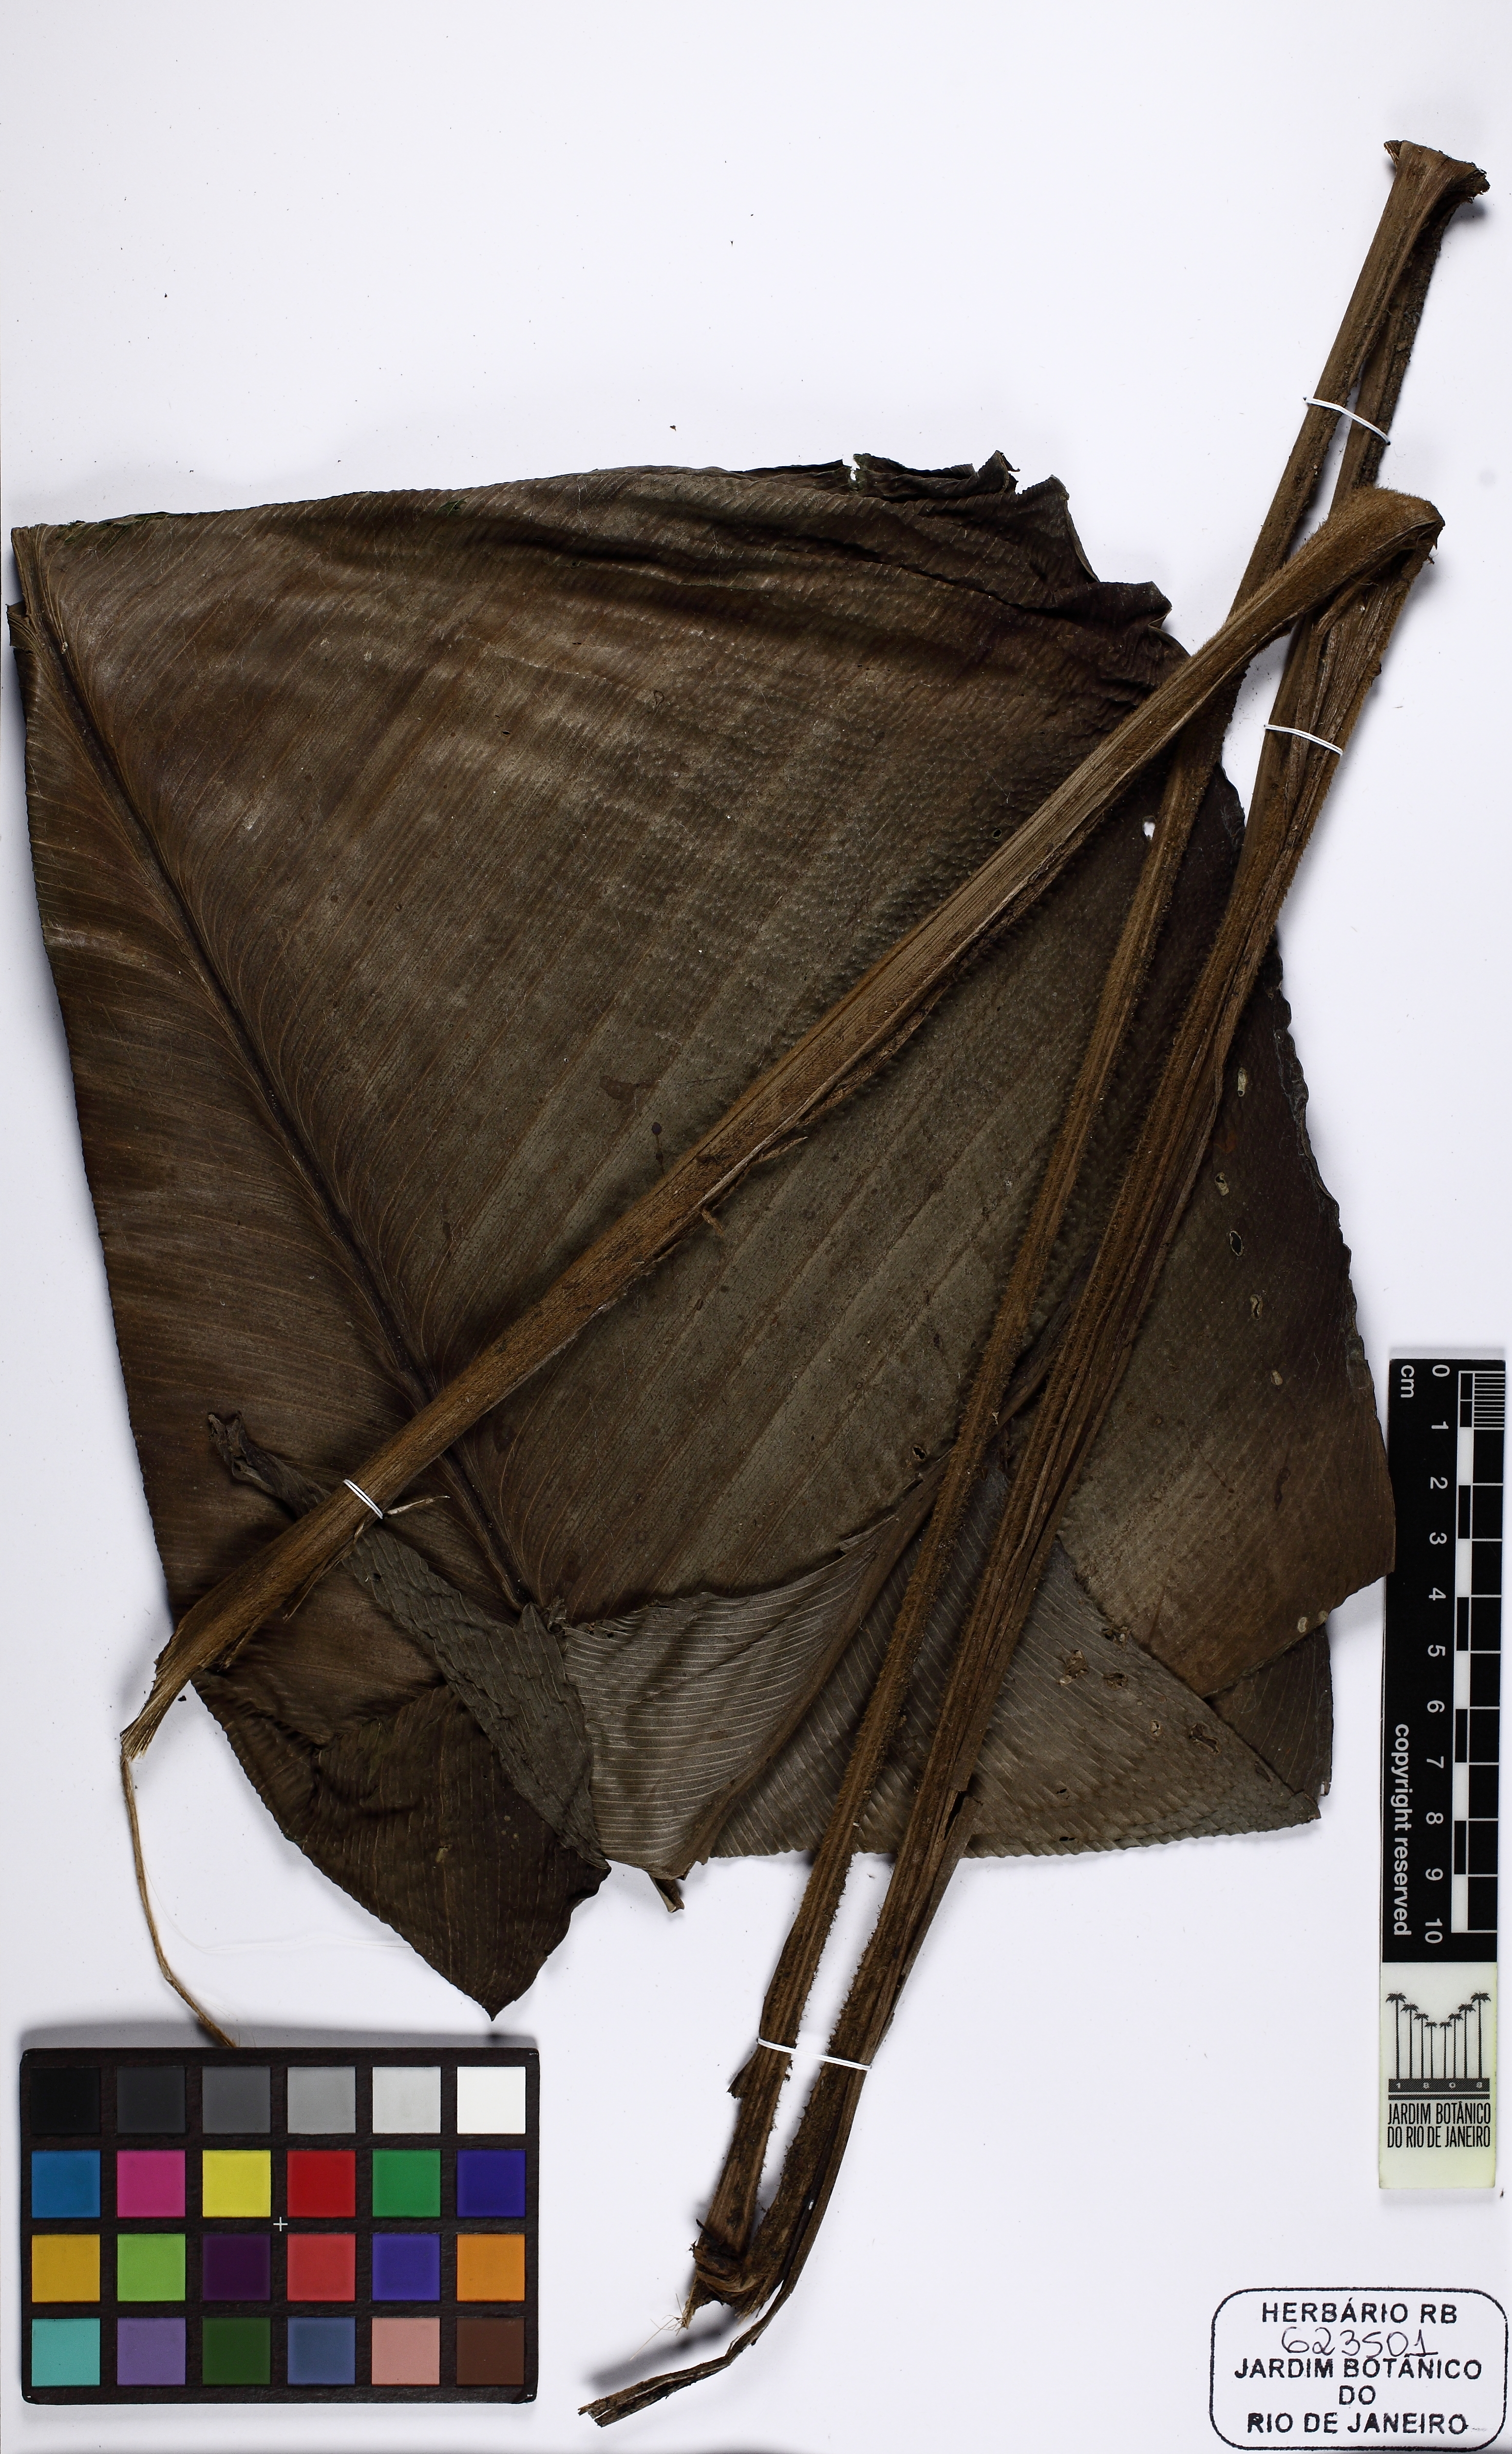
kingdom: Plantae
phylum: Tracheophyta
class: Liliopsida
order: Zingiberales
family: Marantaceae
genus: Goeppertia
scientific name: Goeppertia monophylla
